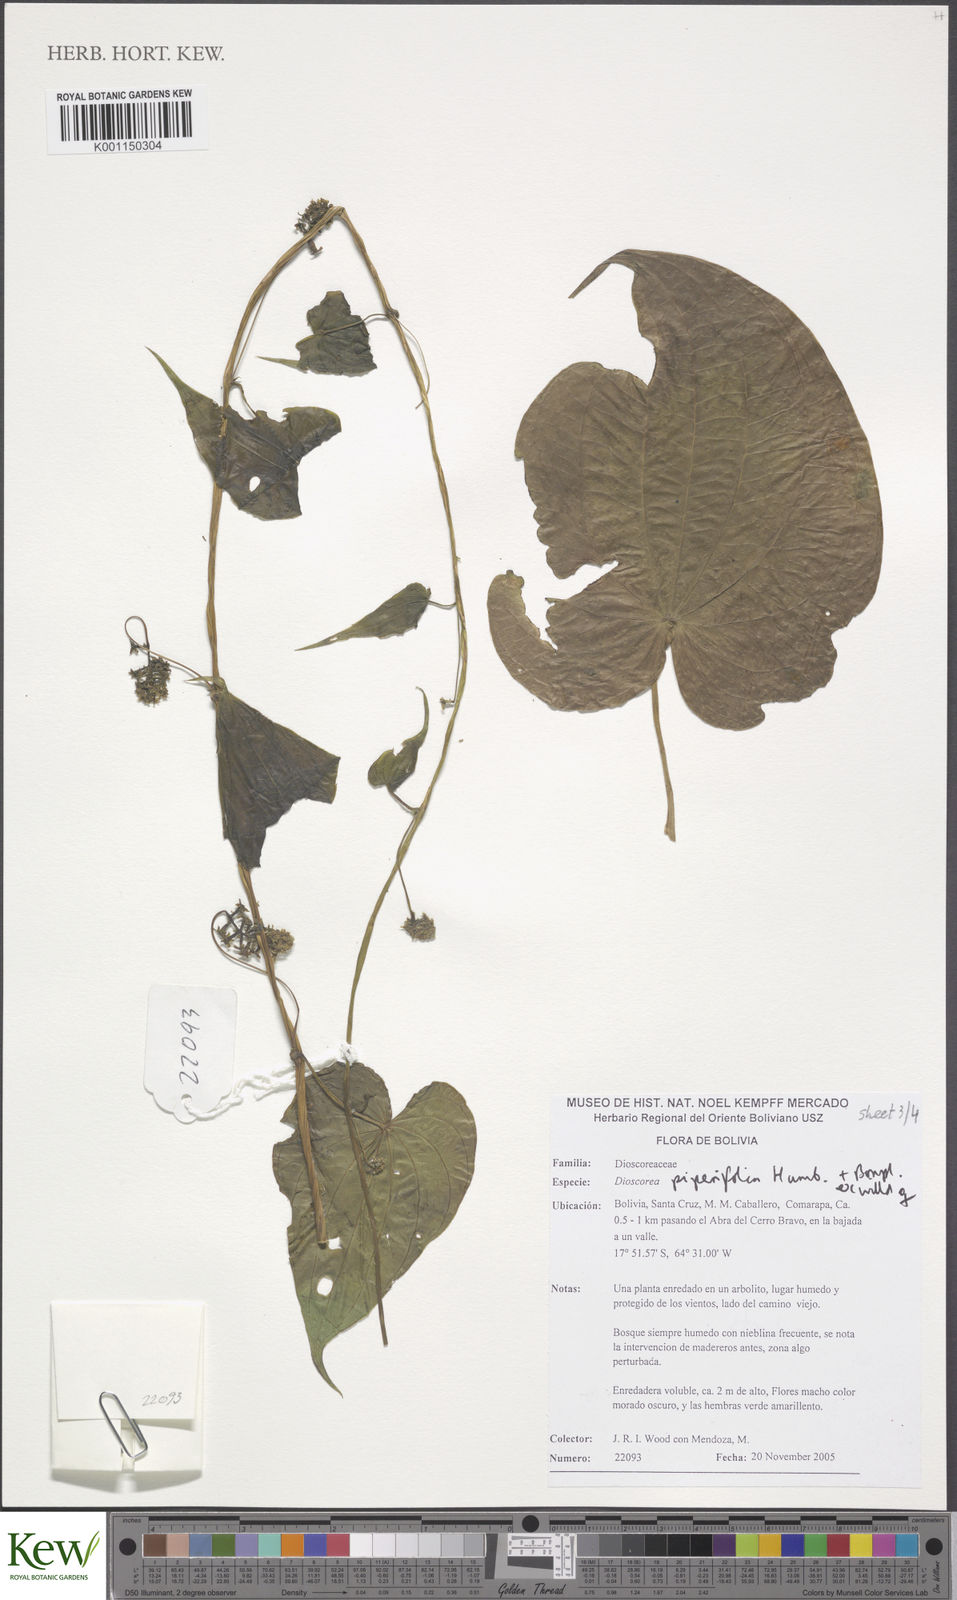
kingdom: Plantae
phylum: Tracheophyta
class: Liliopsida
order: Dioscoreales
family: Dioscoreaceae
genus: Dioscorea
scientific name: Dioscorea piperifolia
